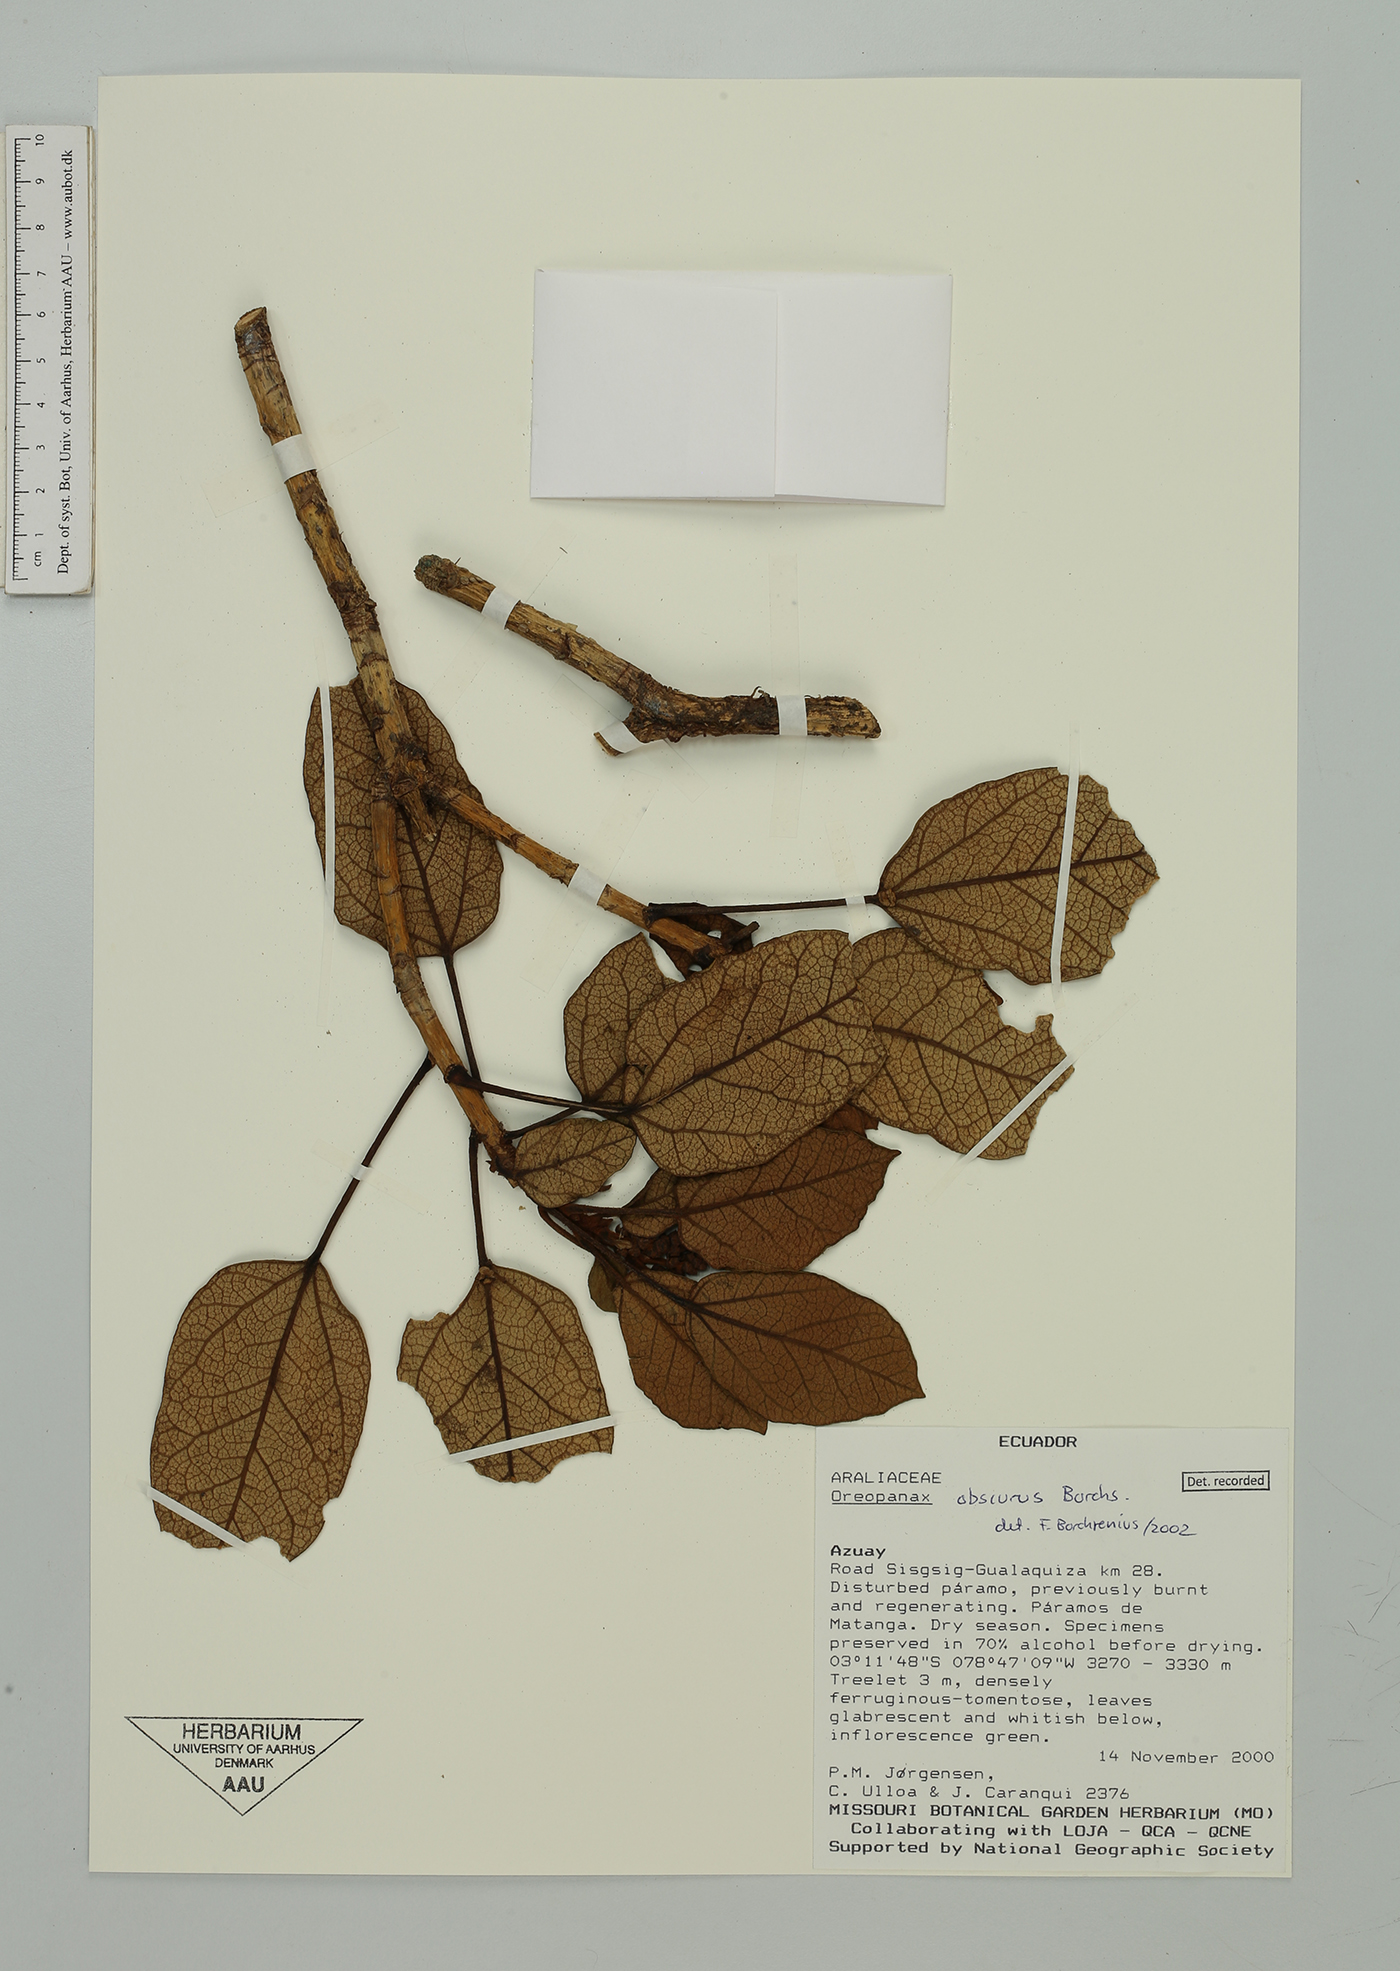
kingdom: Plantae
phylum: Tracheophyta
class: Magnoliopsida
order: Apiales
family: Araliaceae
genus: Oreopanax
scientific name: Oreopanax obscurus
